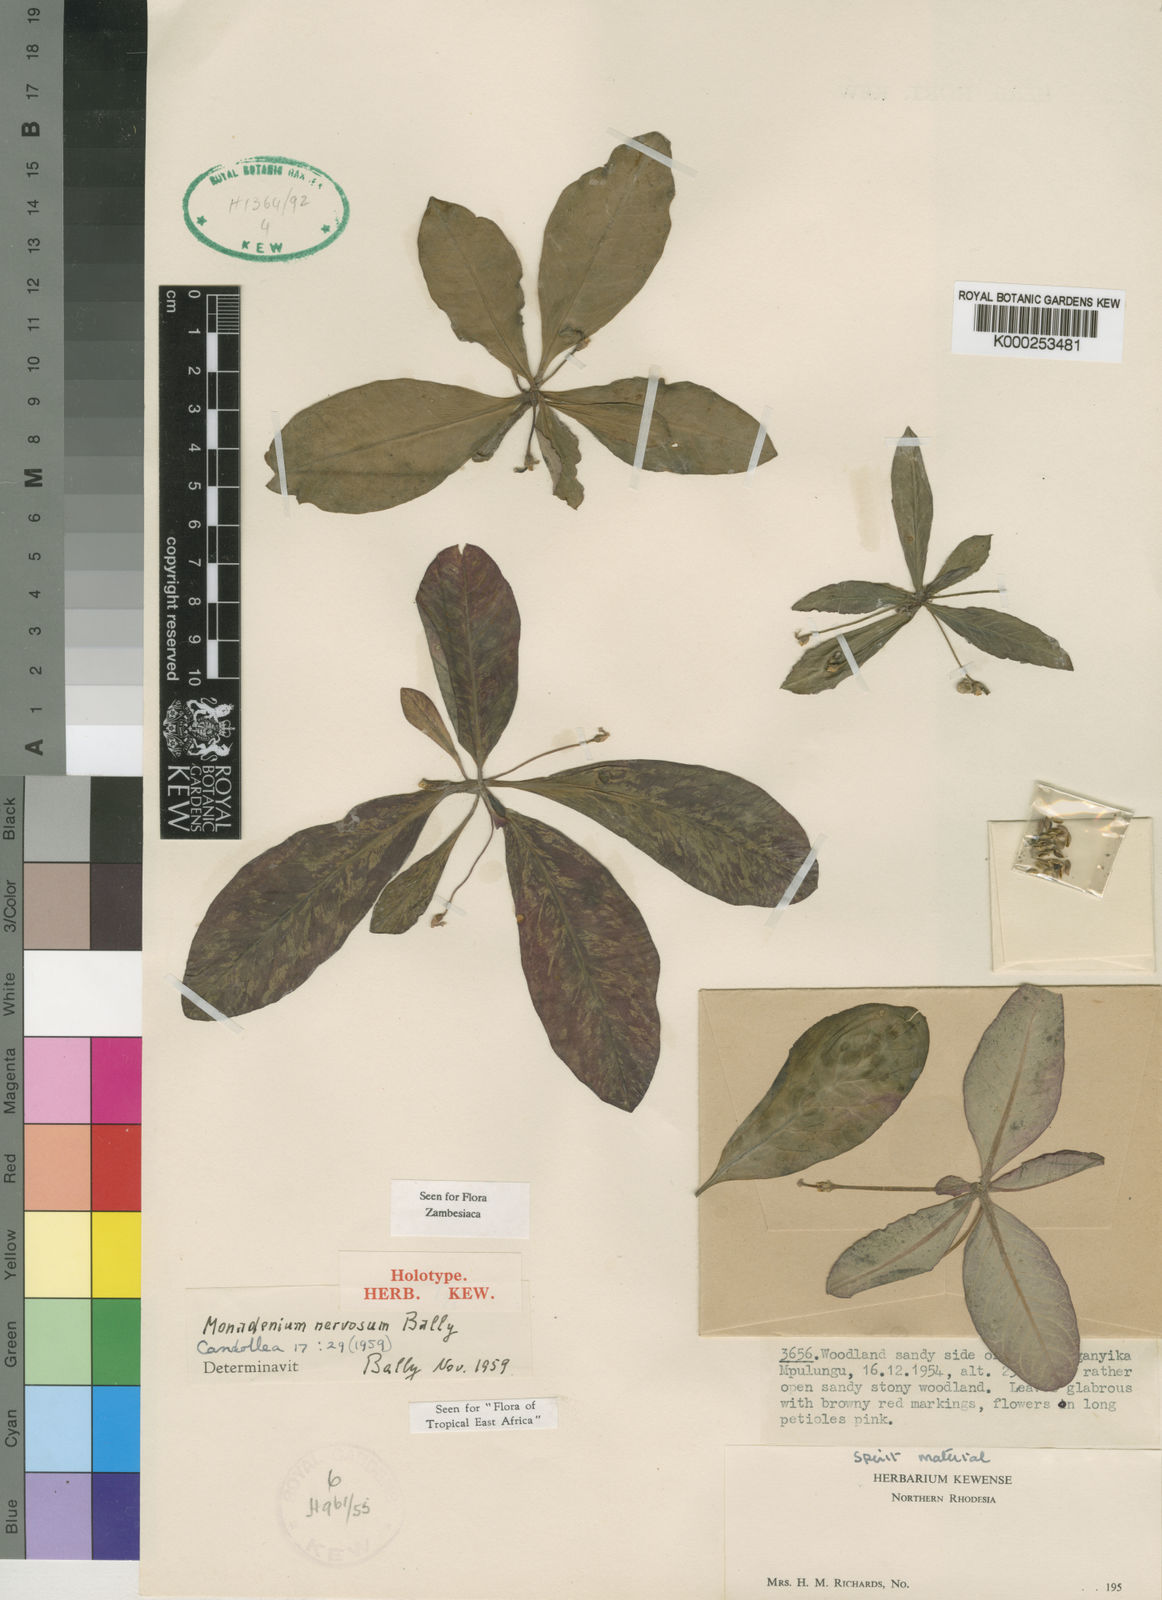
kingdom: Plantae
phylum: Tracheophyta
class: Magnoliopsida
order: Malpighiales
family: Euphorbiaceae
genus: Euphorbia
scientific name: Euphorbia letouzeyana
